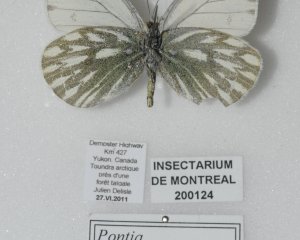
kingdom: Animalia
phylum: Arthropoda
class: Insecta
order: Lepidoptera
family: Pieridae
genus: Pontia
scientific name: Pontia occidentalis
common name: Western White
